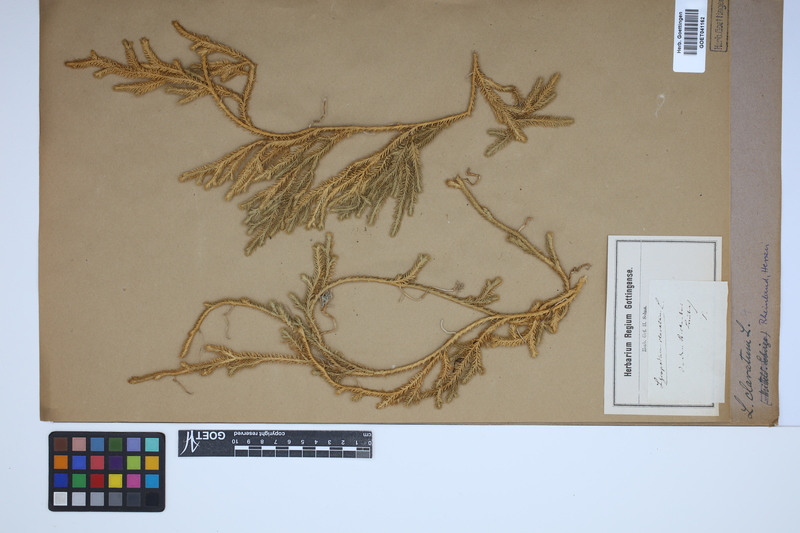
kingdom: Plantae
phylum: Tracheophyta
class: Lycopodiopsida
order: Lycopodiales
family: Lycopodiaceae
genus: Lycopodium
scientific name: Lycopodium clavatum
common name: Stag's-horn clubmoss
